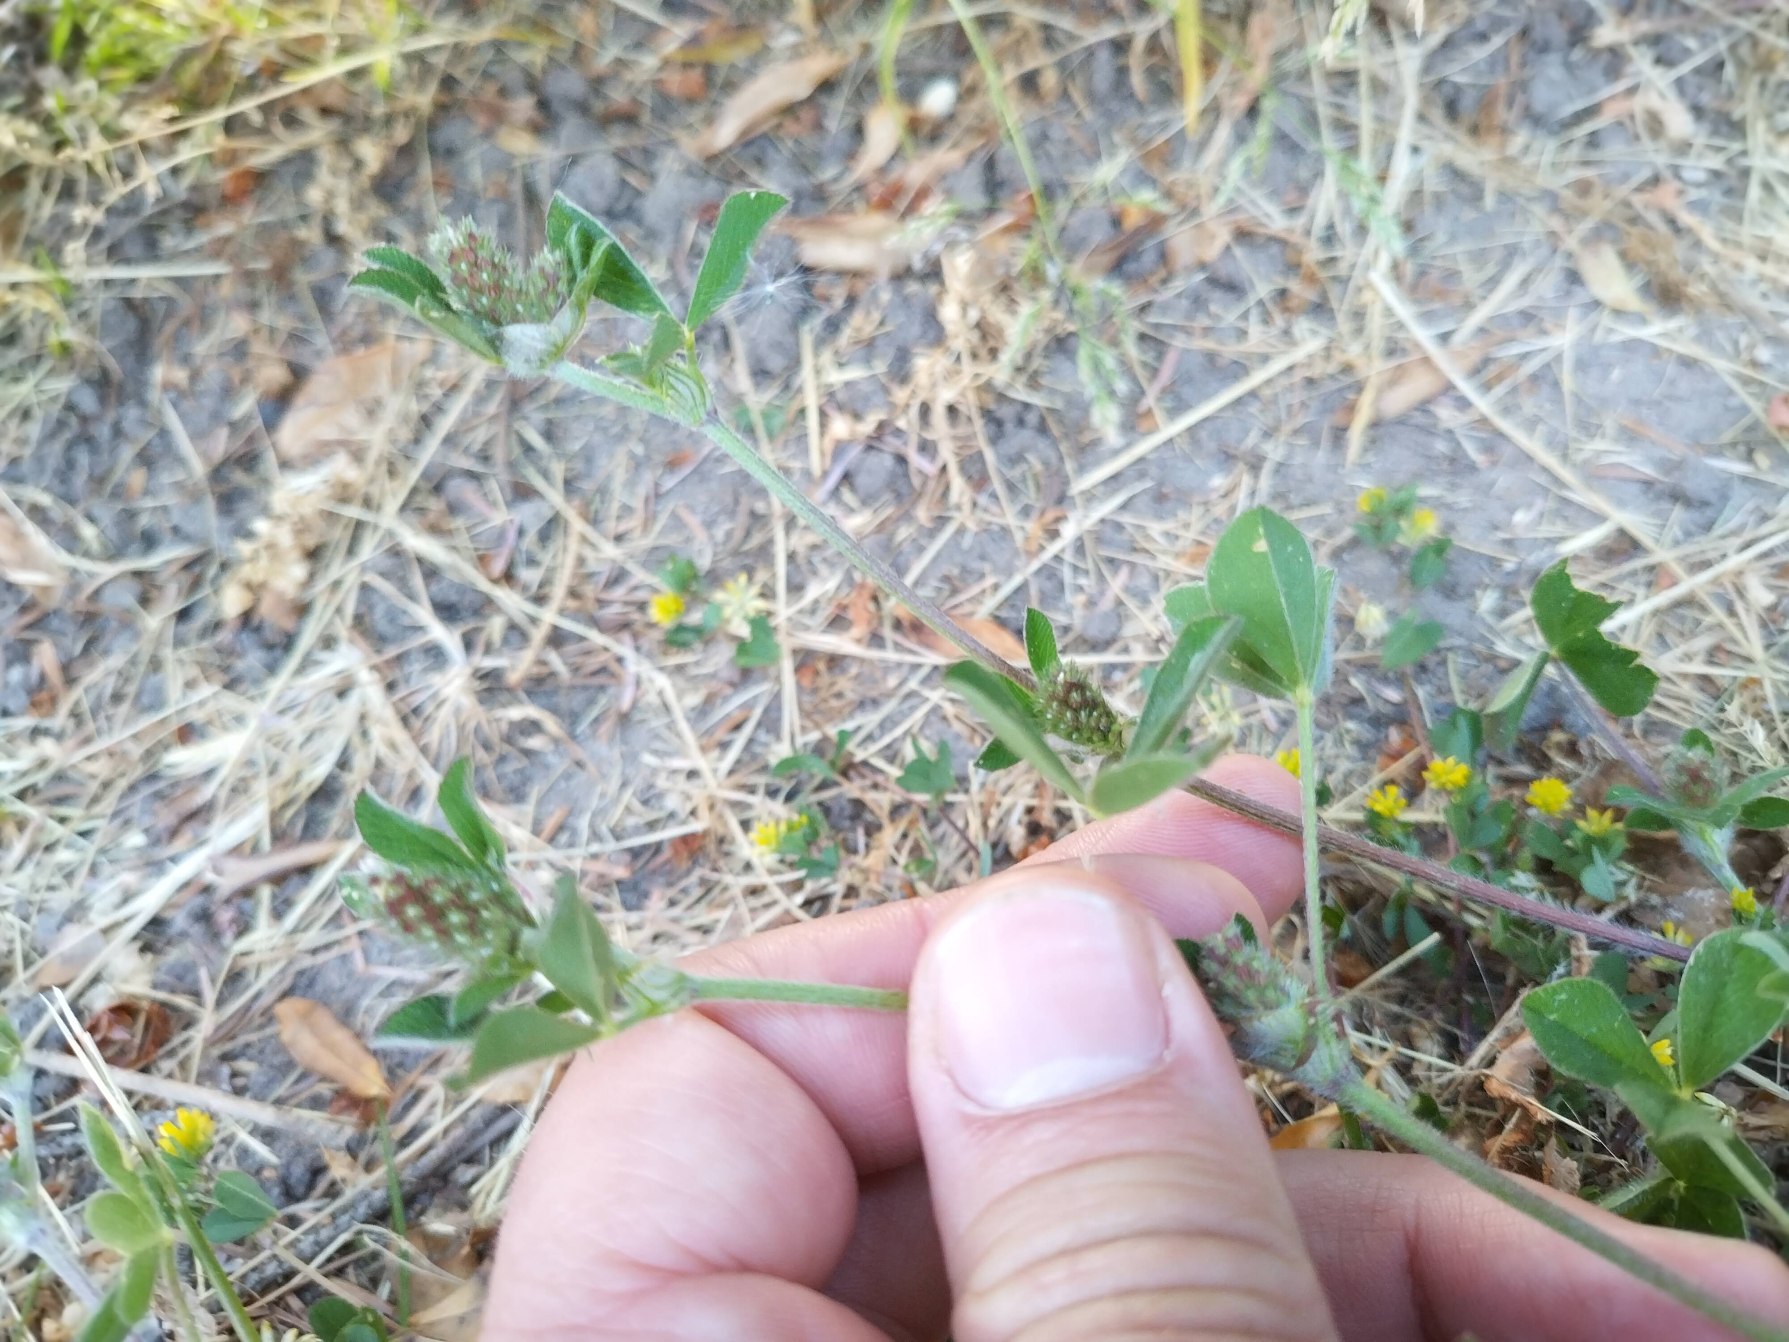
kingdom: Plantae
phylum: Tracheophyta
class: Magnoliopsida
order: Fabales
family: Fabaceae
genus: Trifolium
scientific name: Trifolium striatum
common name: Stribet kløver
